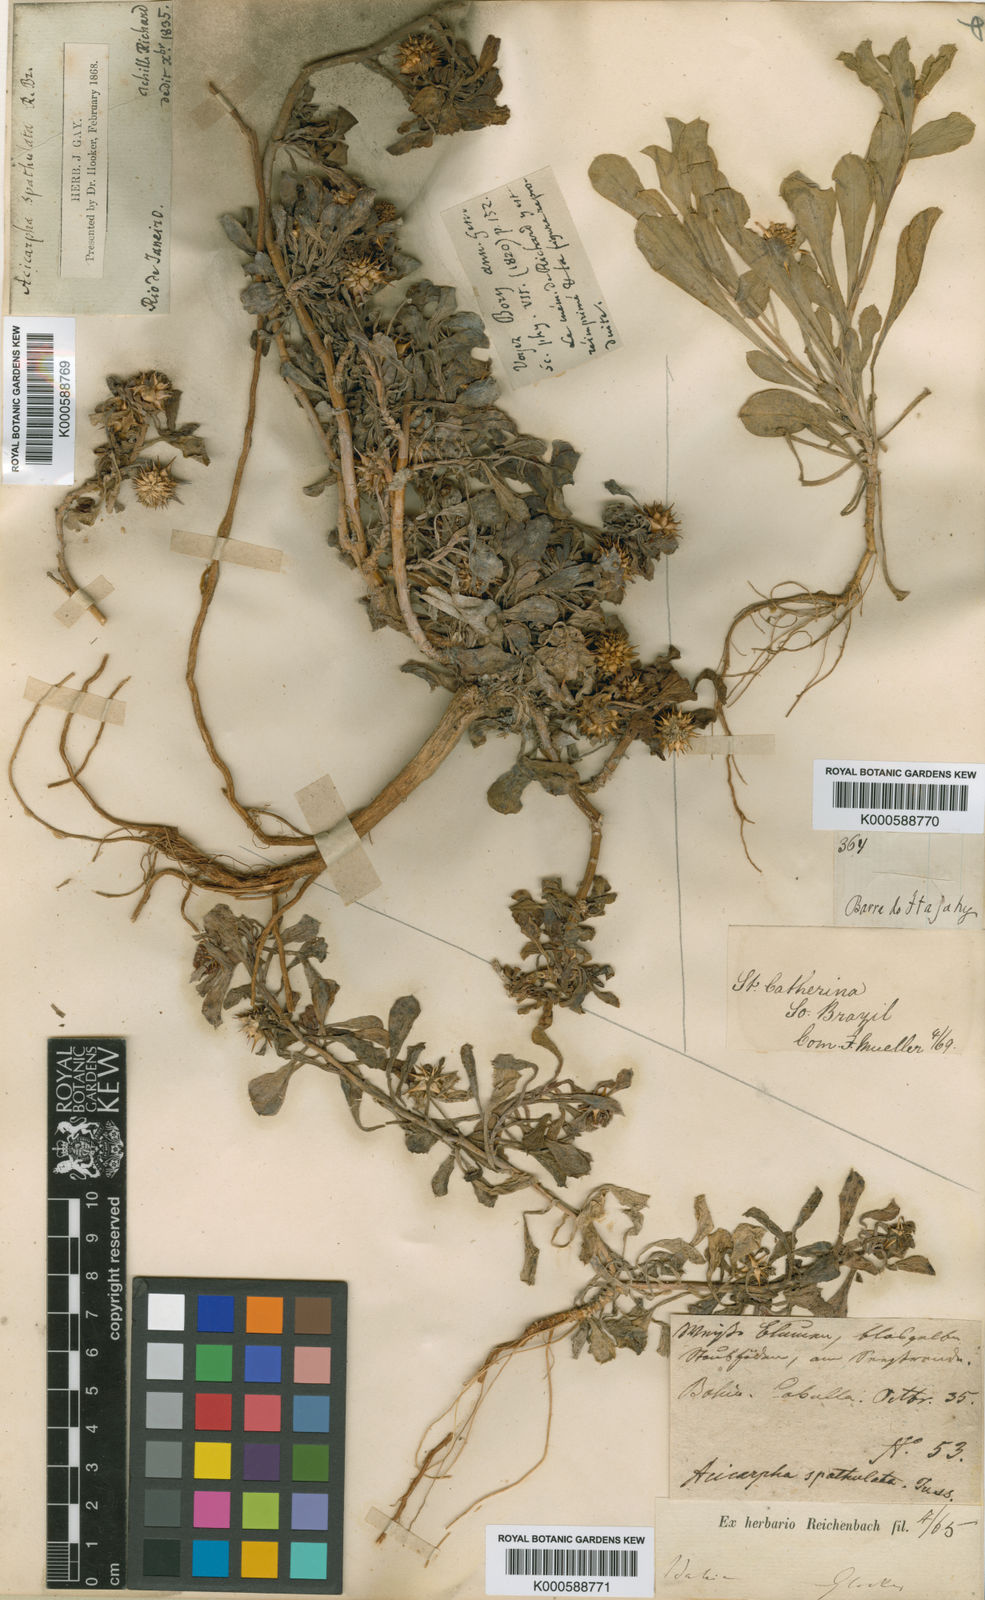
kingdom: Plantae
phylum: Tracheophyta
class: Magnoliopsida
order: Asterales
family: Calyceraceae
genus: Acicarpha
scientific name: Acicarpha spathulata
